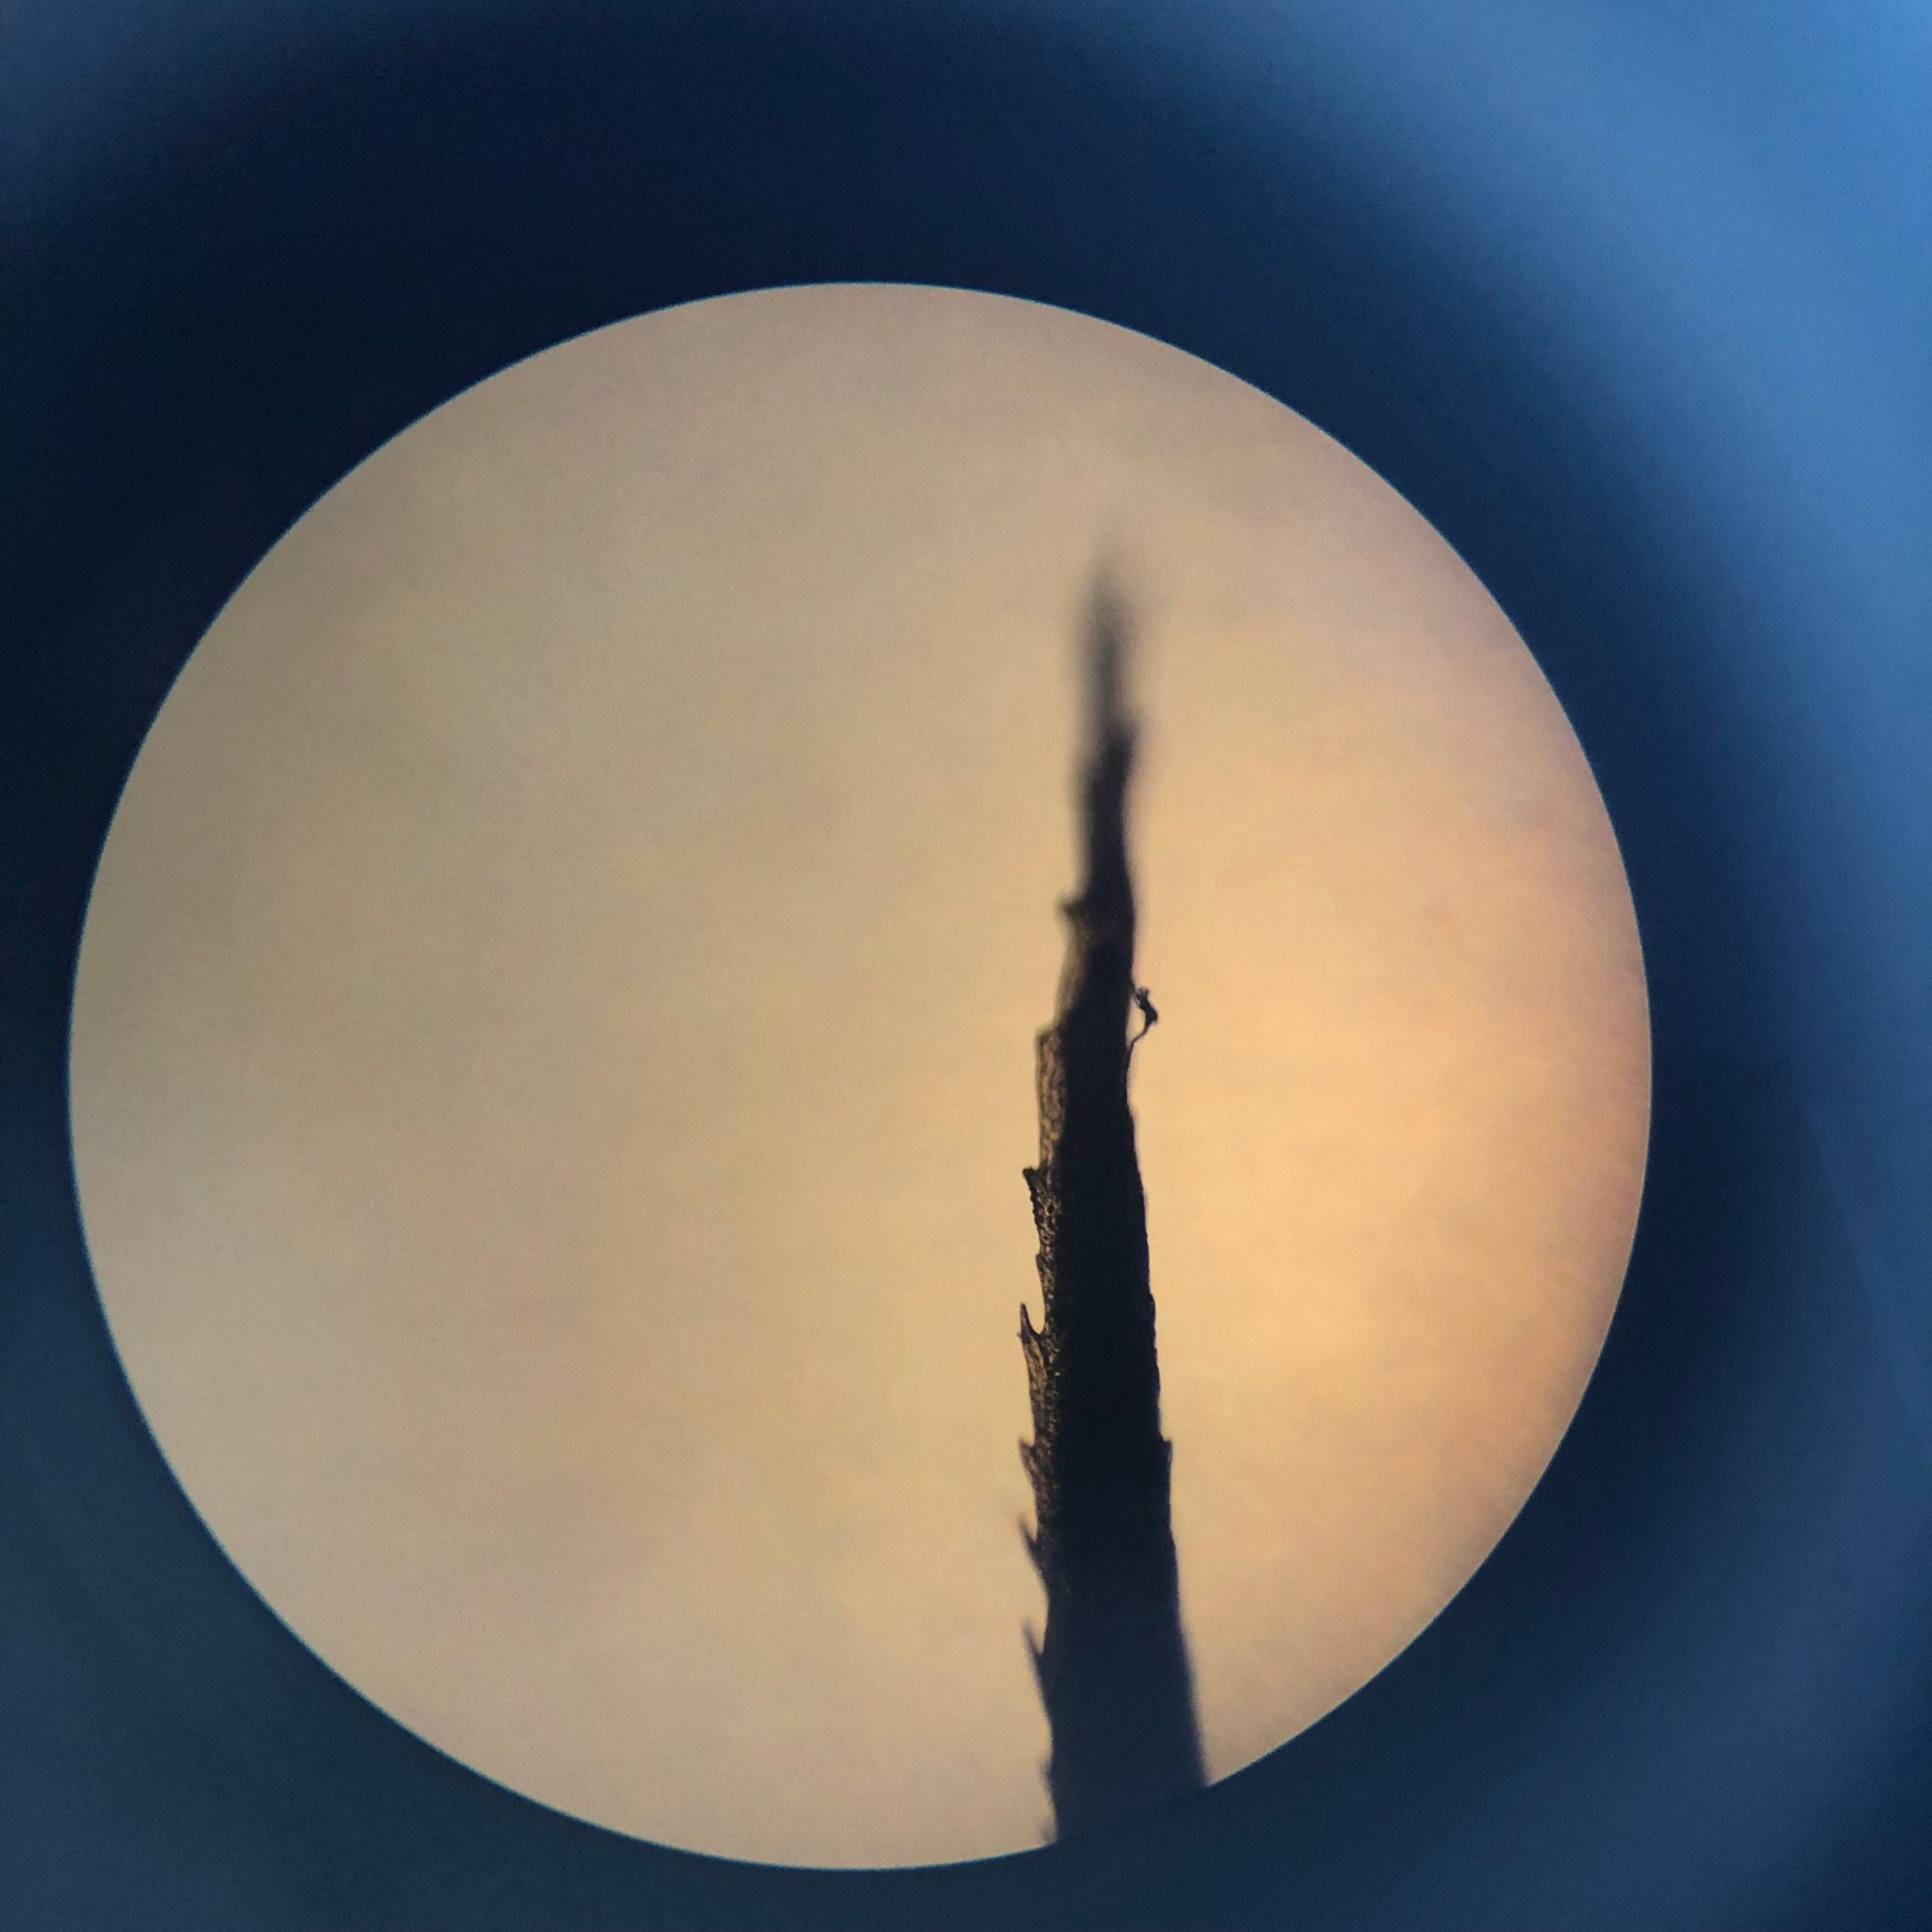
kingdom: Plantae
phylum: Bryophyta
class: Polytrichopsida
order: Polytrichales
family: Polytrichaceae
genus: Polytrichum
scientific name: Polytrichum formosum
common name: Skov-jomfruhår
